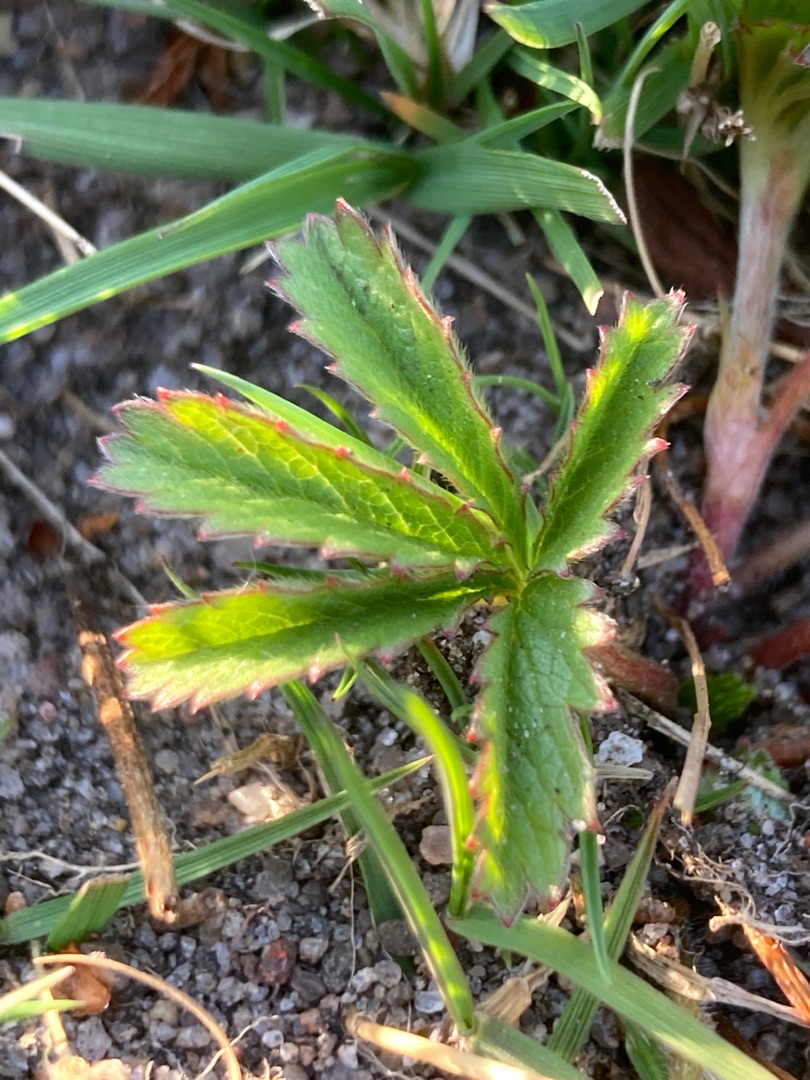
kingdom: Plantae
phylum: Tracheophyta
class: Magnoliopsida
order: Rosales
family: Rosaceae
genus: Potentilla
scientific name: Potentilla reptans
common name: Krybende potentil
